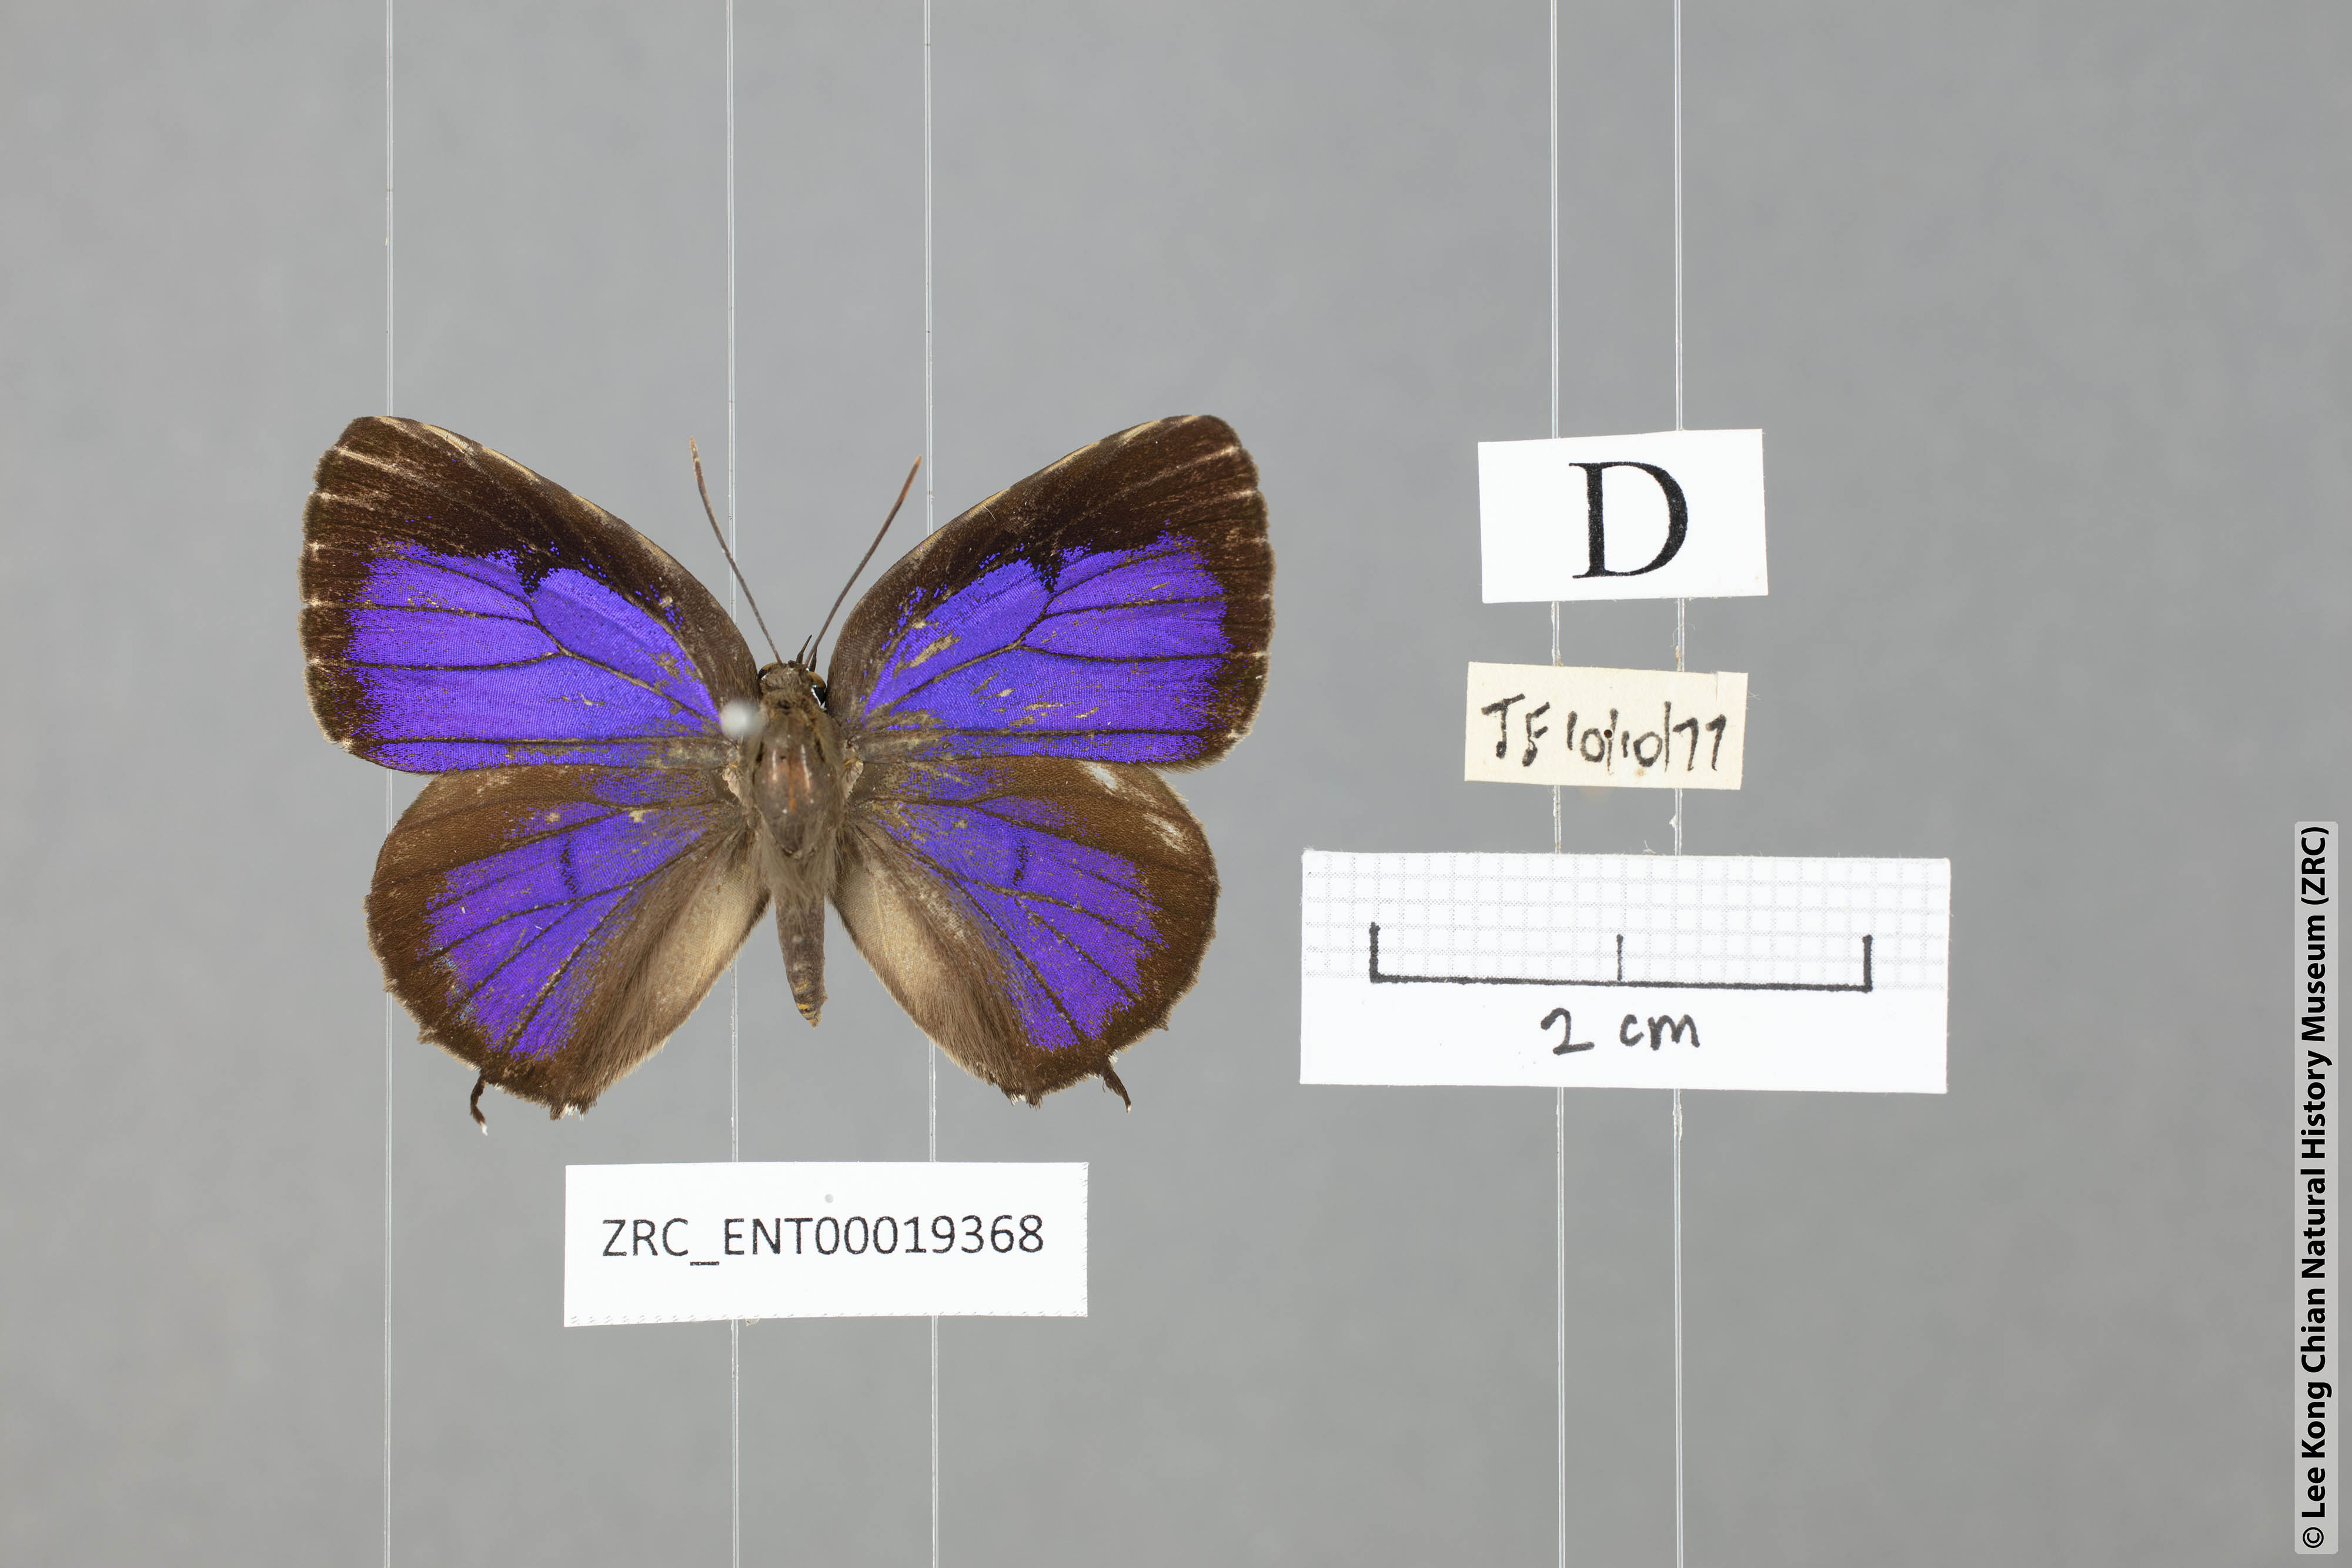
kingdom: Animalia
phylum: Arthropoda
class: Insecta
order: Lepidoptera
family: Lycaenidae
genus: Arhopala
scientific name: Arhopala corinda
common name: Ultramarine oakblue
